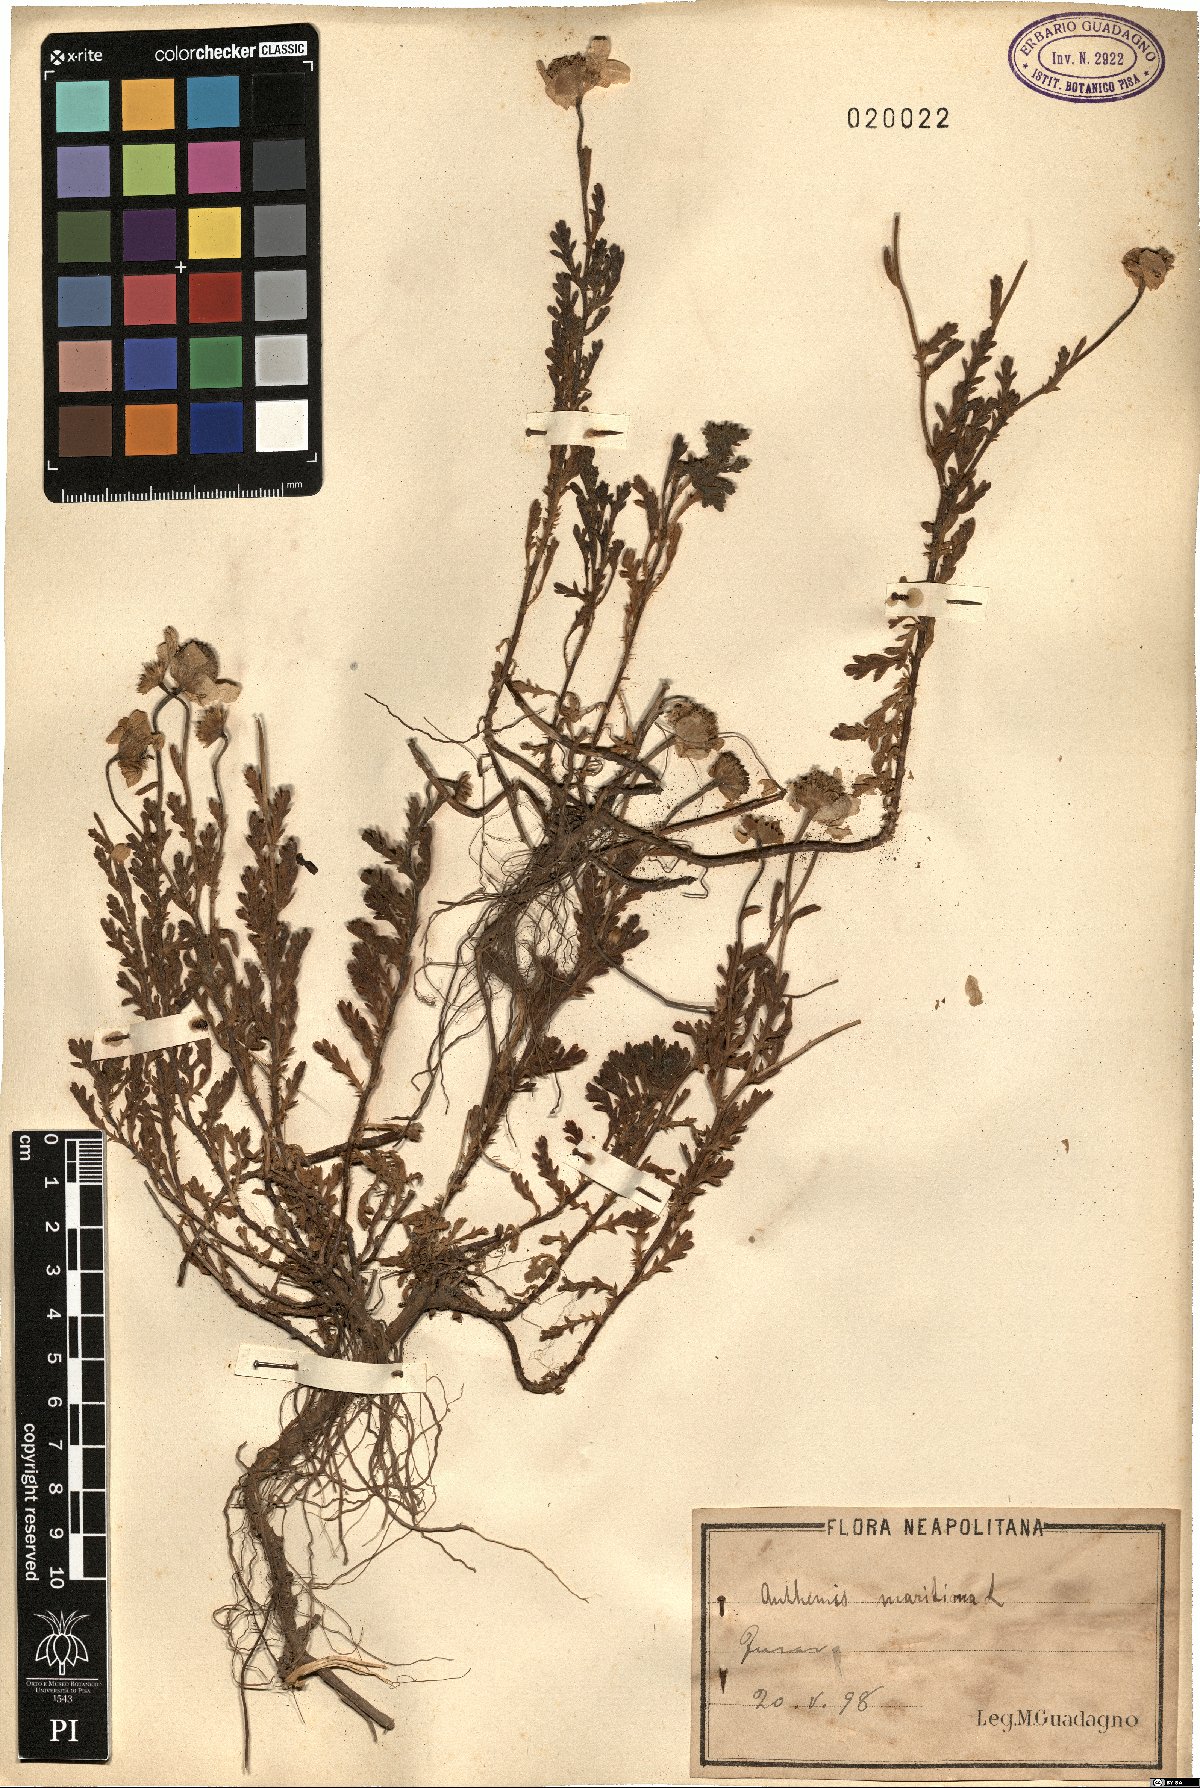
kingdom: Plantae
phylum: Tracheophyta
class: Magnoliopsida
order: Asterales
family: Asteraceae
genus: Anthemis
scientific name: Anthemis maritima
